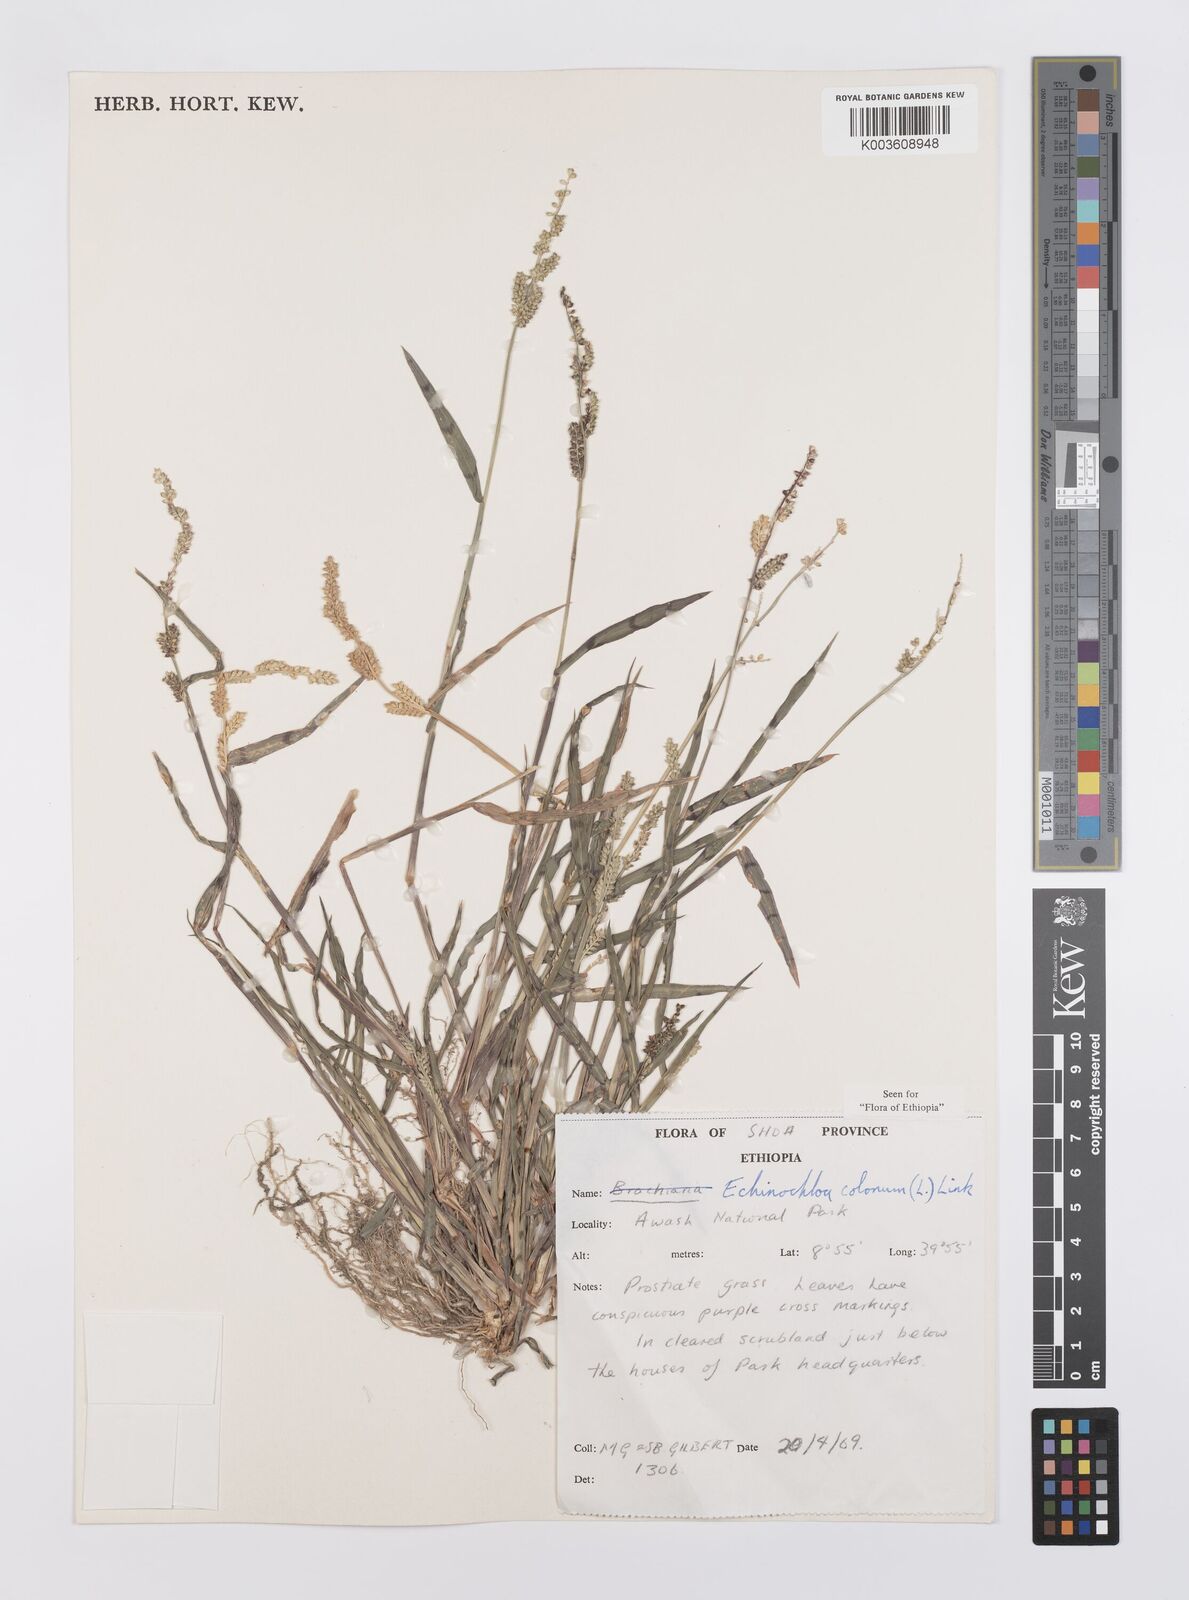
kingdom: Plantae
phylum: Tracheophyta
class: Liliopsida
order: Poales
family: Poaceae
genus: Echinochloa
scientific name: Echinochloa colonum
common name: Jungle rice
